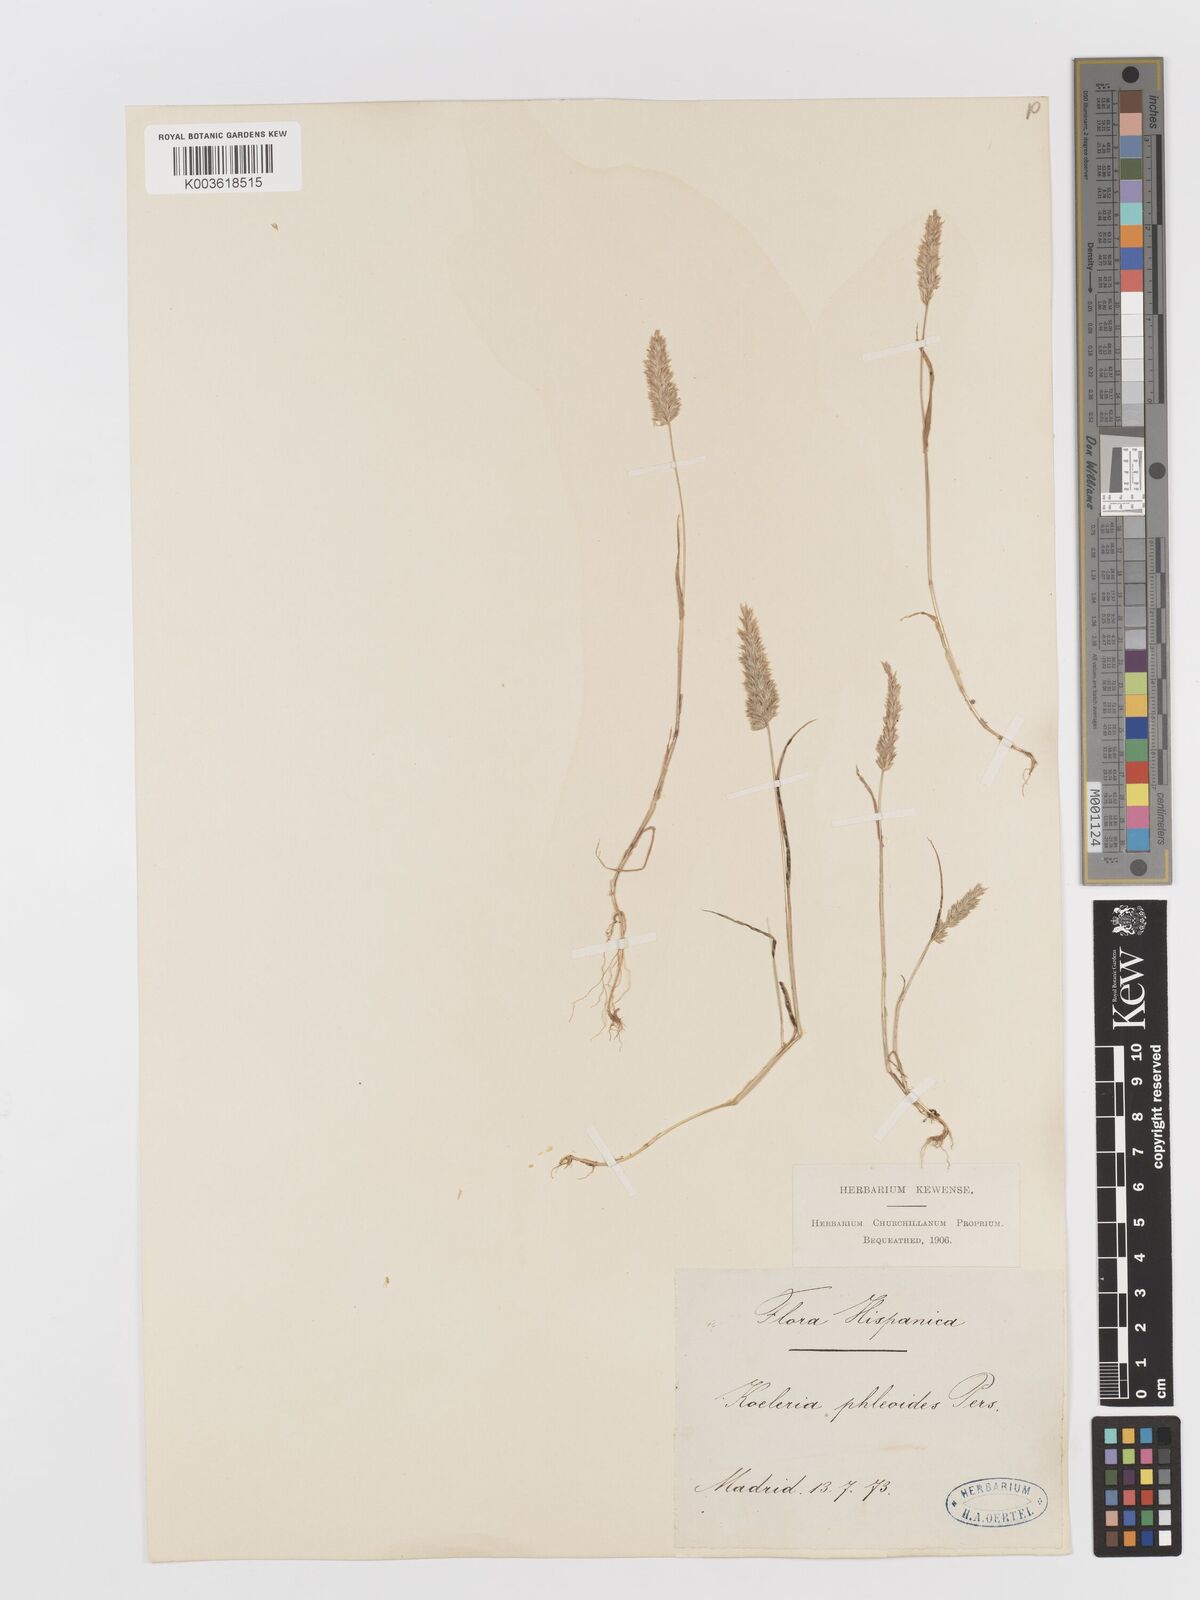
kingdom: Plantae
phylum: Tracheophyta
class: Liliopsida
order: Poales
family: Poaceae
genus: Rostraria
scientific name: Rostraria cristata
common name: Mediterranean hair-grass
